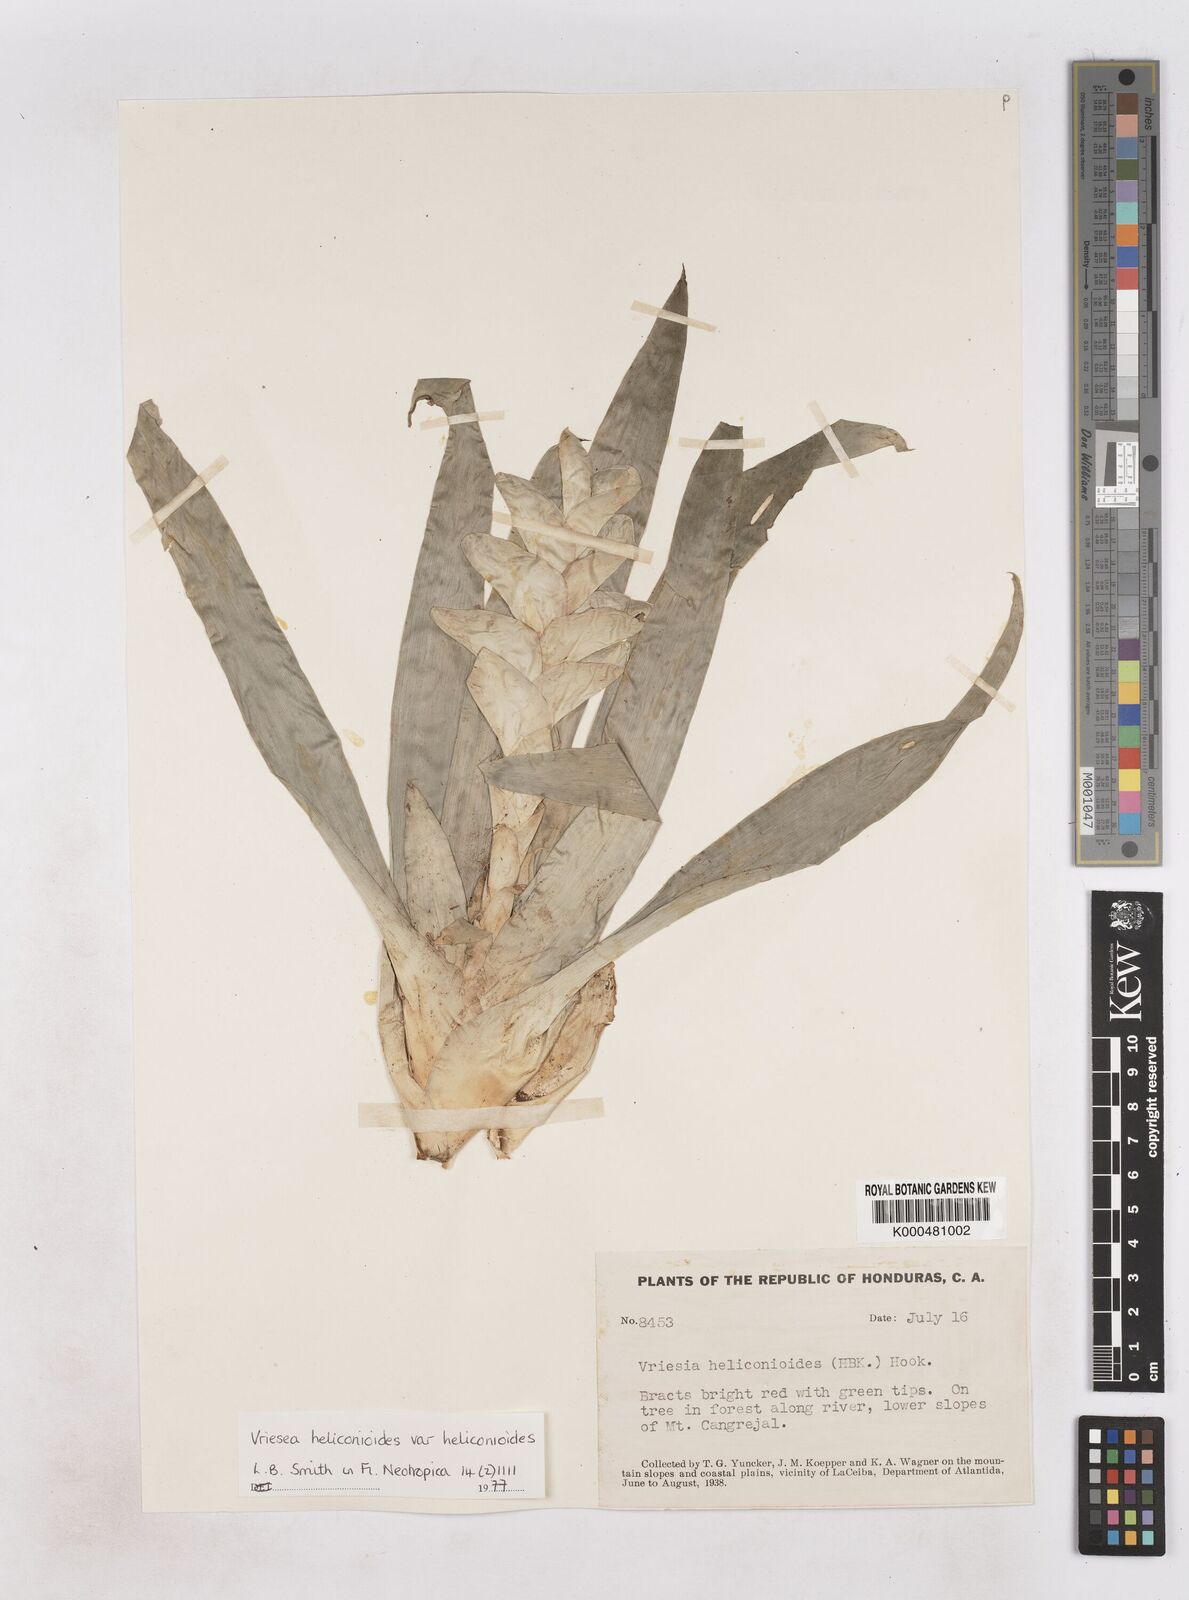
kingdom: Plantae
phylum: Tracheophyta
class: Liliopsida
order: Poales
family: Bromeliaceae
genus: Vriesea
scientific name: Vriesea
